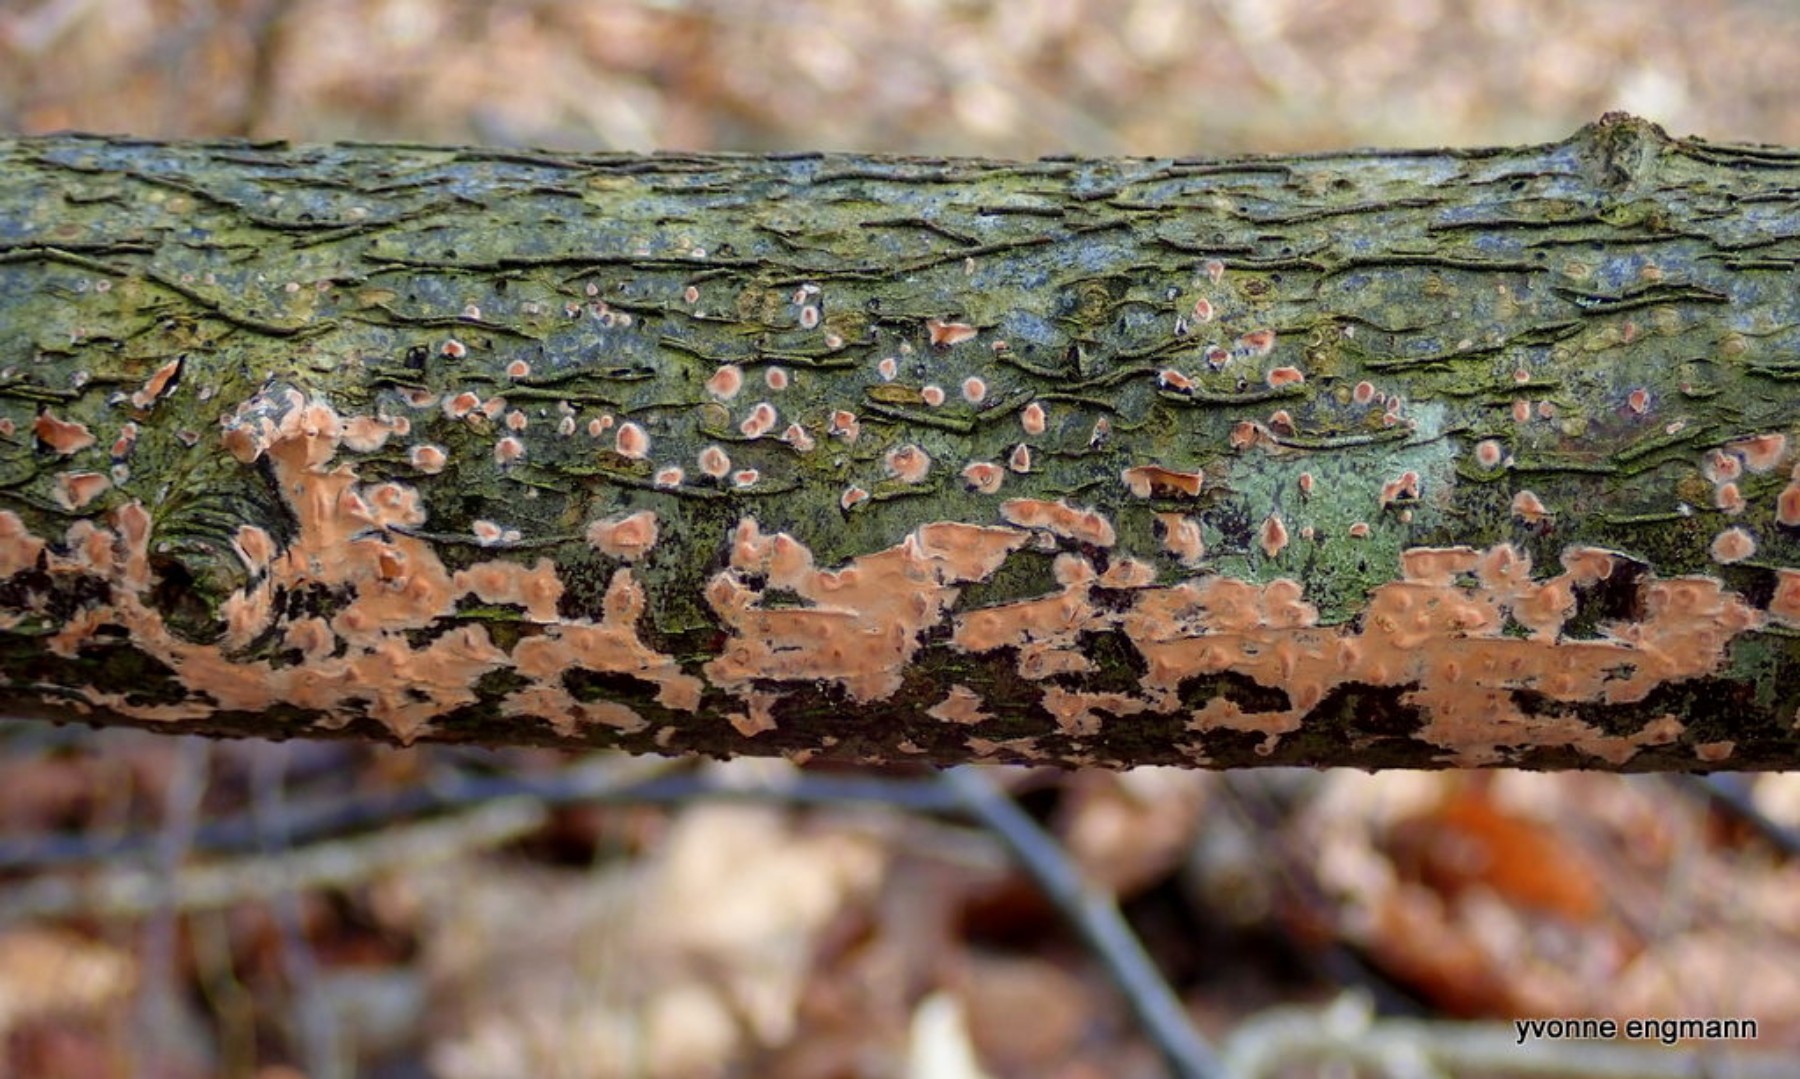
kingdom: Fungi
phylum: Basidiomycota
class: Agaricomycetes
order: Russulales
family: Peniophoraceae
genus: Peniophora
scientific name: Peniophora incarnata
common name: laksefarvet voksskind
